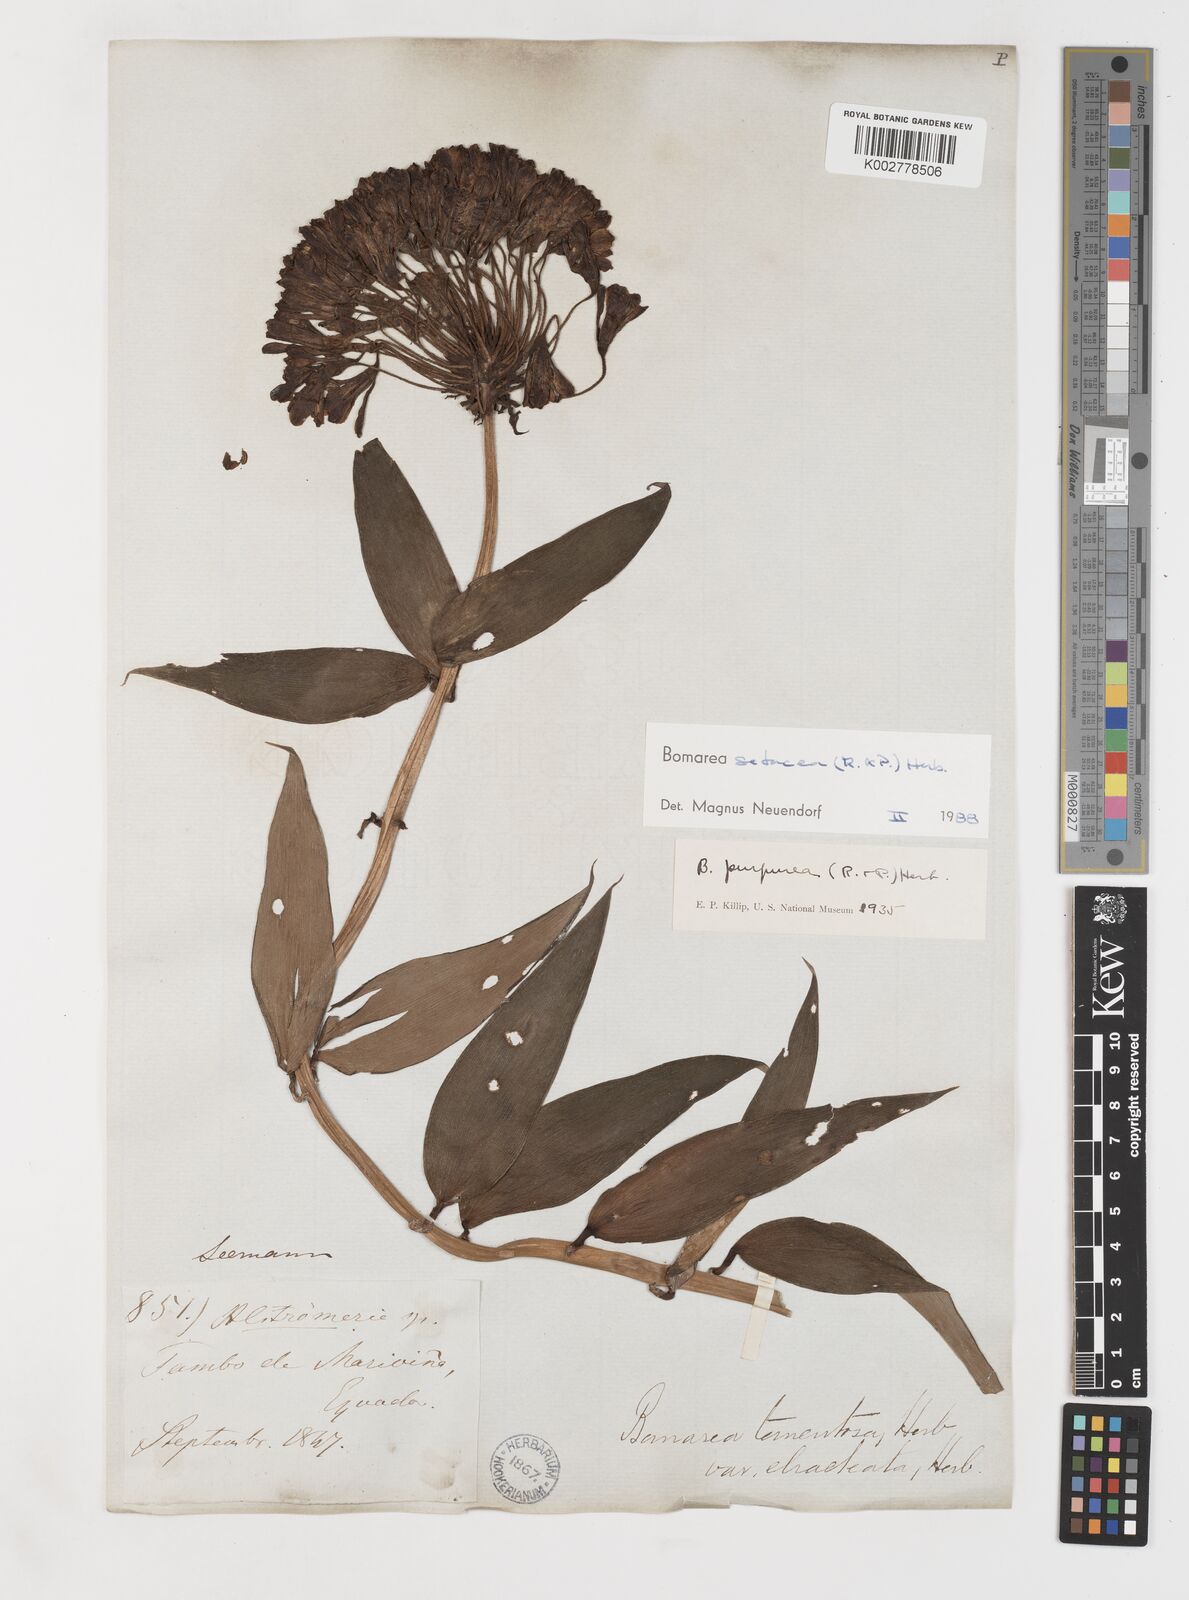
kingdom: Plantae
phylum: Tracheophyta
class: Liliopsida
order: Liliales
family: Alstroemeriaceae
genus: Bomarea
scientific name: Bomarea setacea
